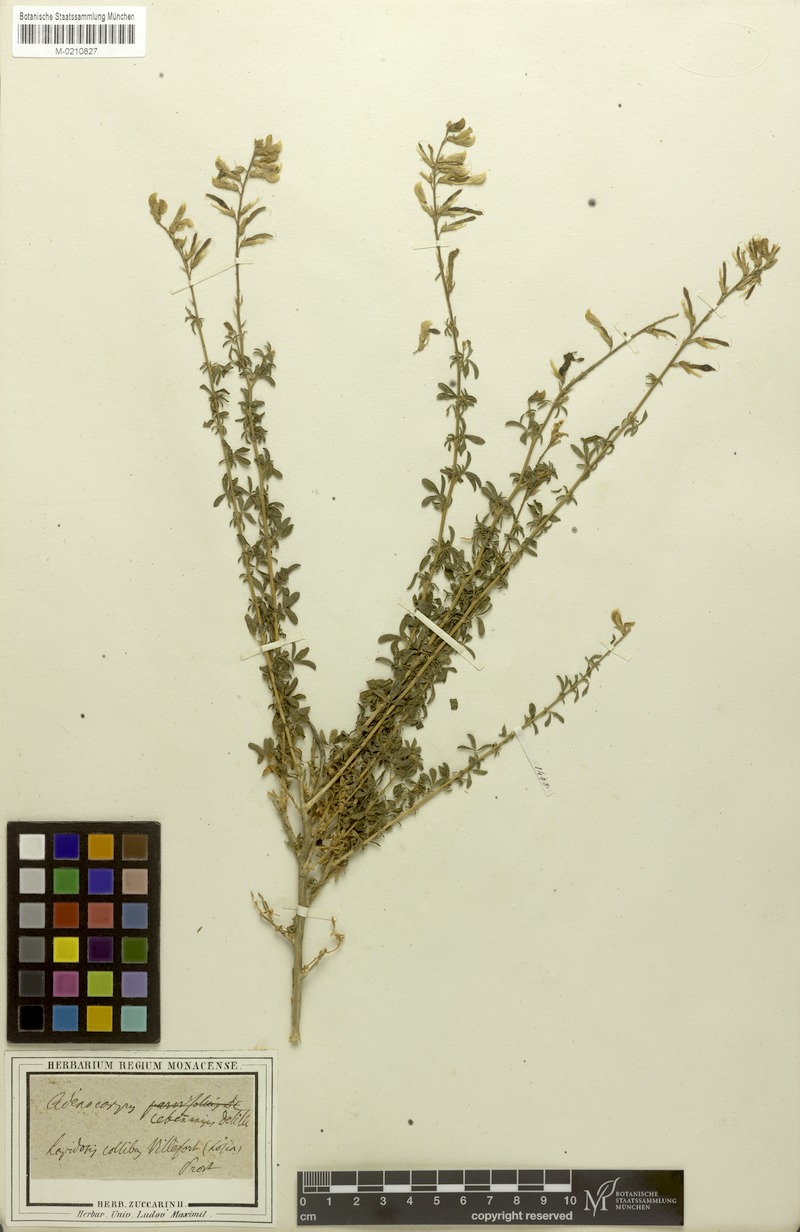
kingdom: Plantae
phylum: Tracheophyta
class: Magnoliopsida
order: Fabales
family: Fabaceae
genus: Adenocarpus
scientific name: Adenocarpus complicatus
